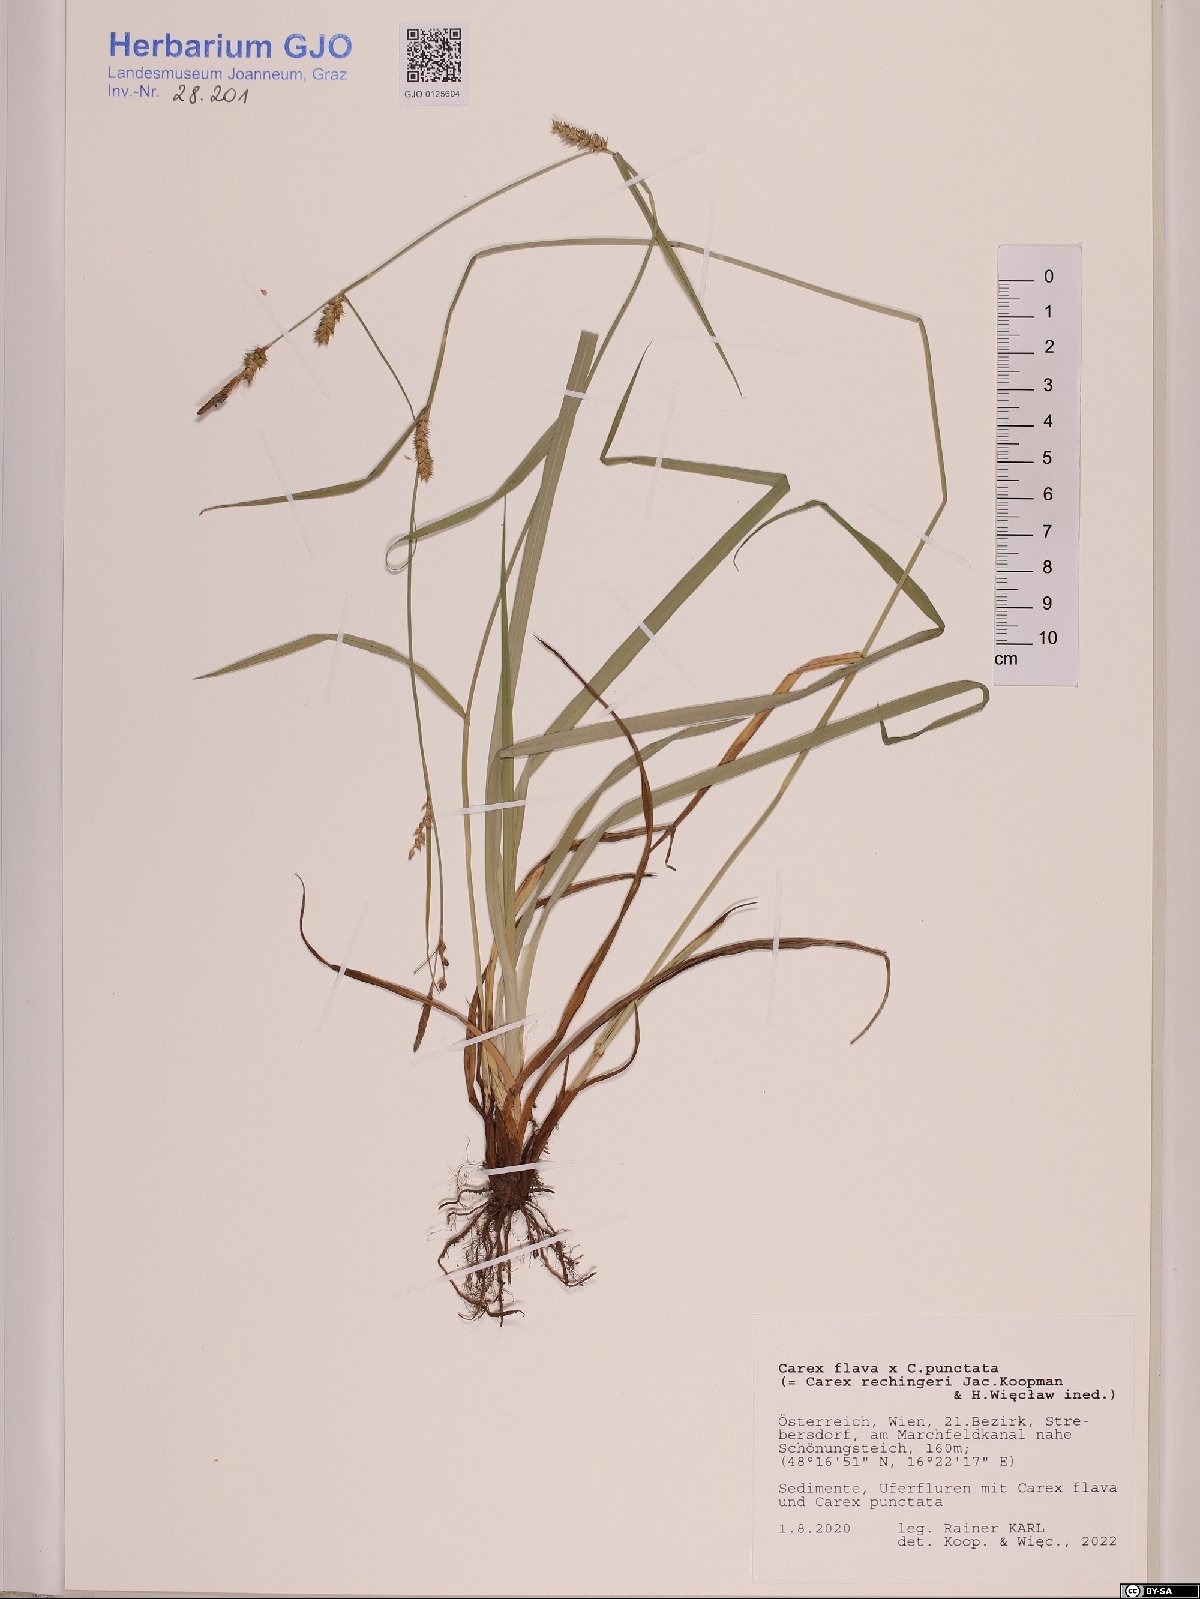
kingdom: Plantae
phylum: Tracheophyta
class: Liliopsida
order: Poales
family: Cyperaceae
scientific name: Cyperaceae
